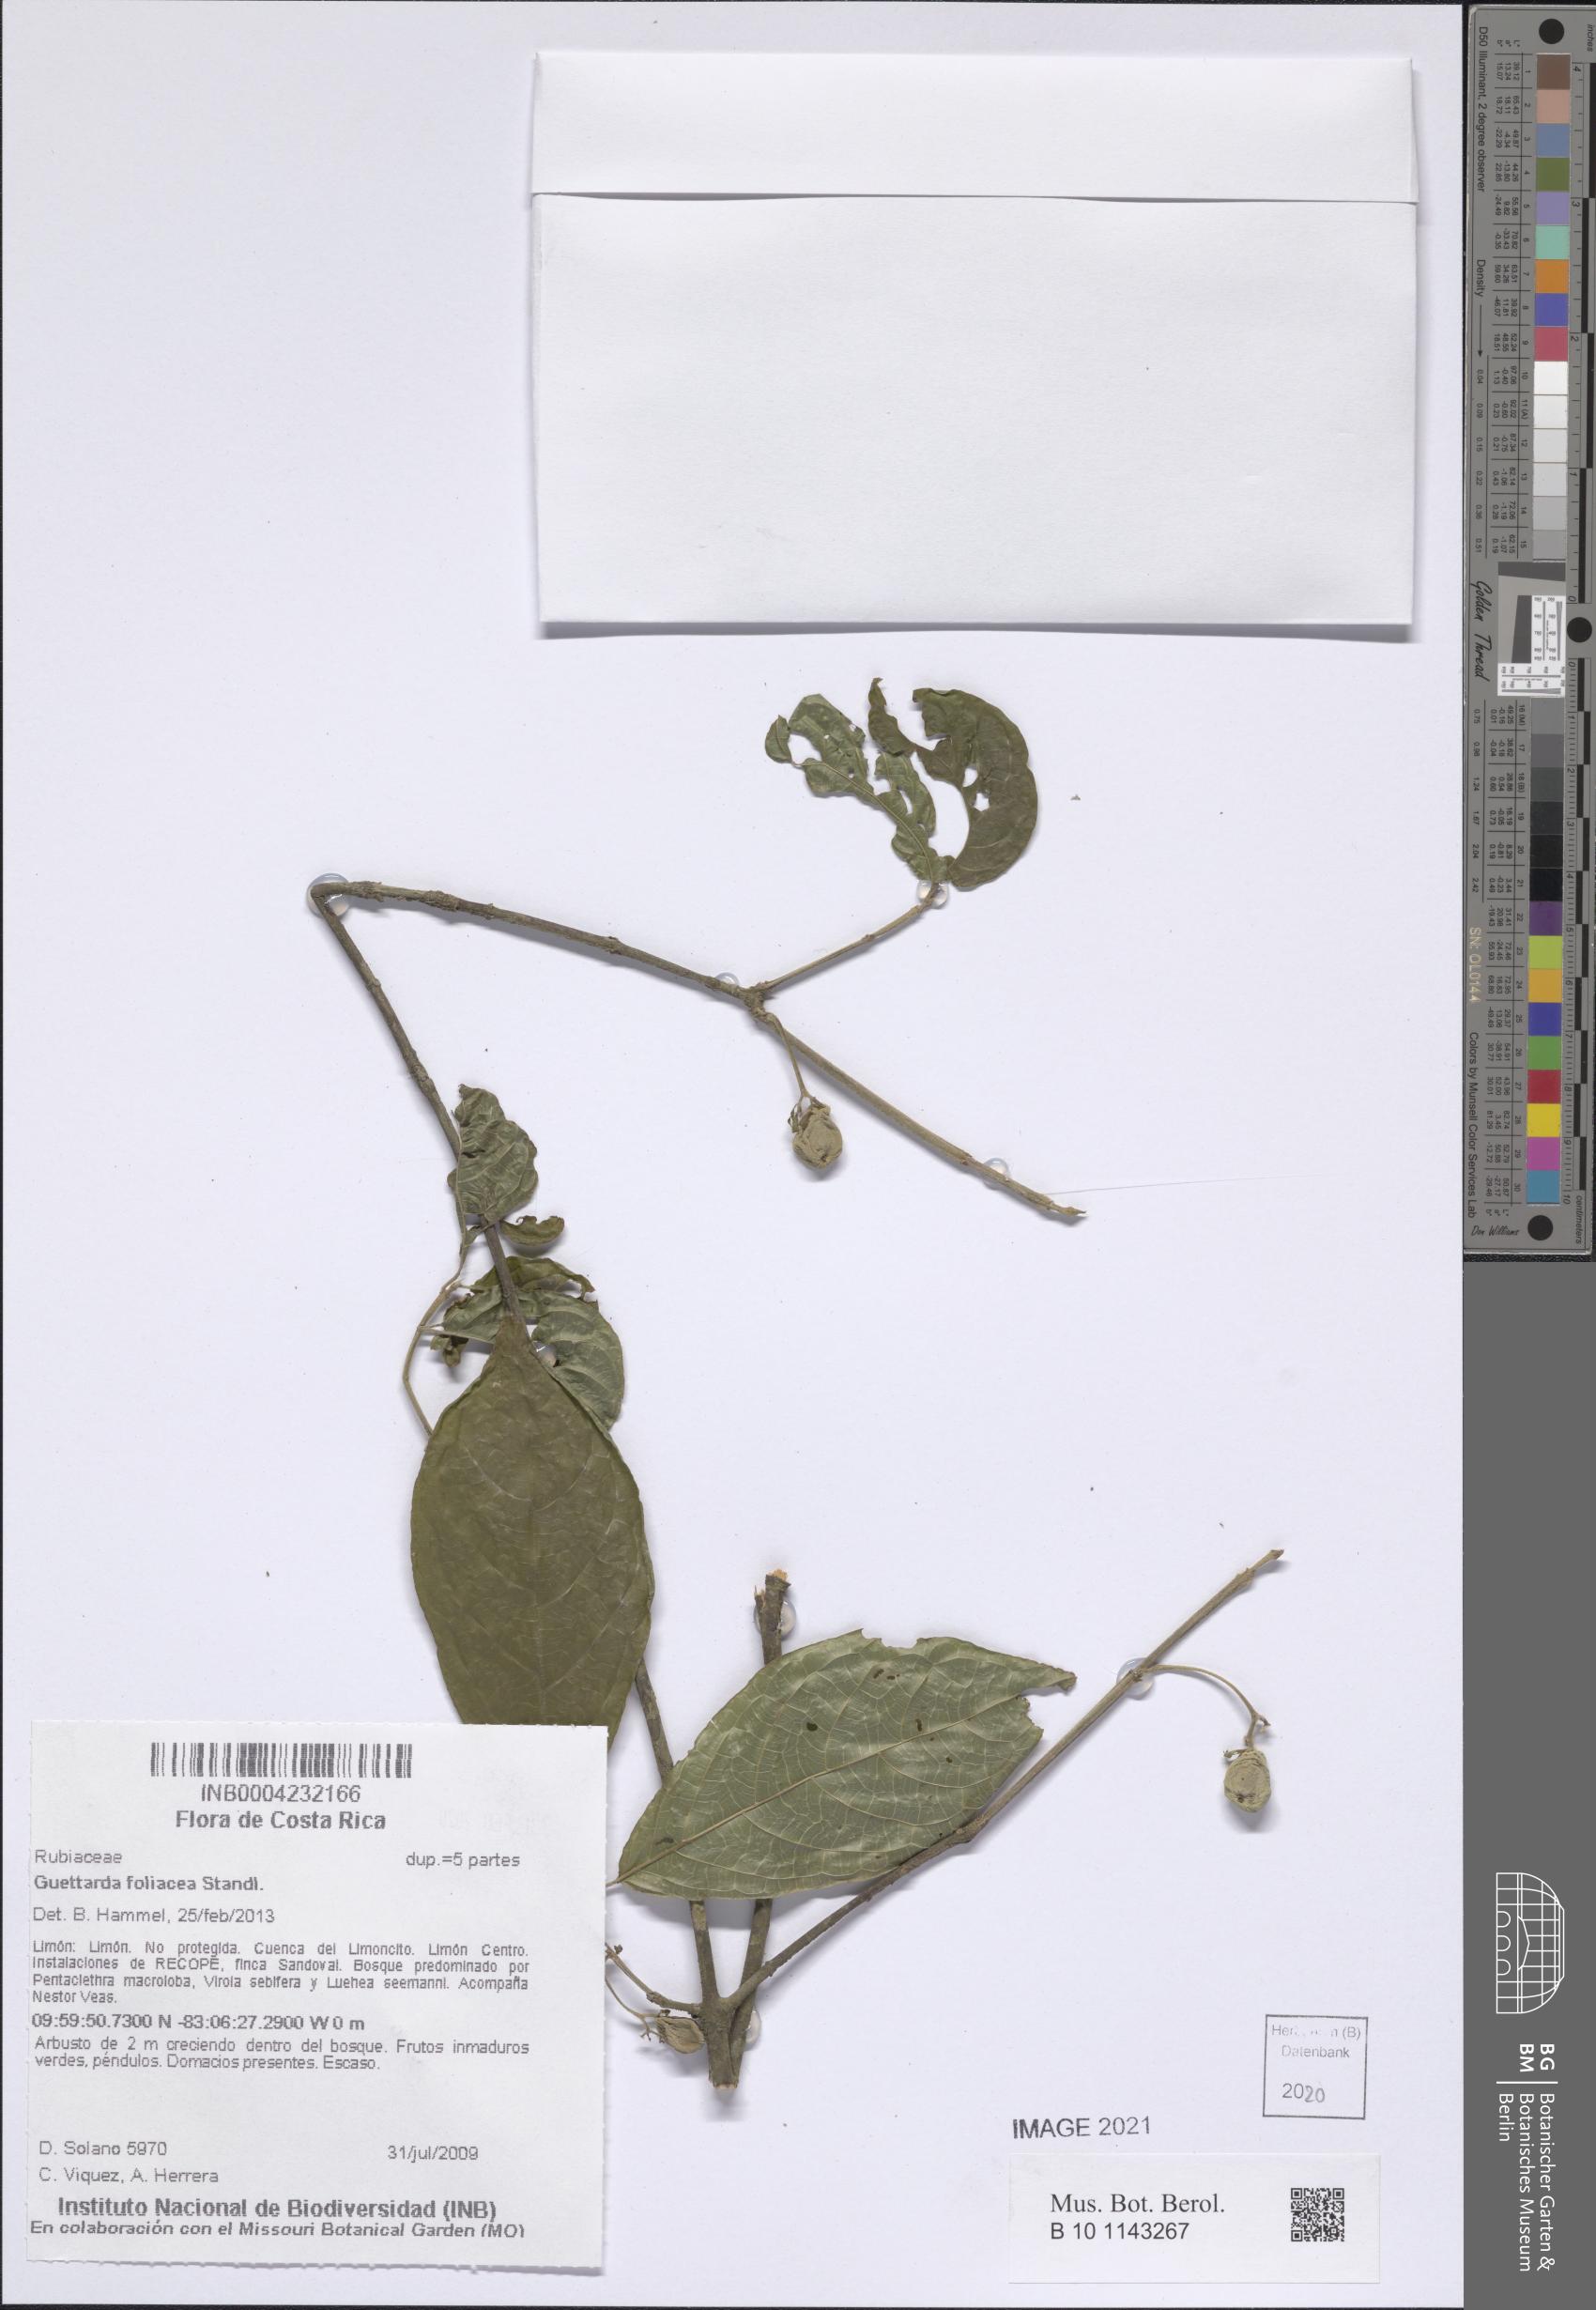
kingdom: Plantae
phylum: Tracheophyta
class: Magnoliopsida
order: Gentianales
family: Rubiaceae
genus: Guettarda
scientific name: Guettarda foliacea
